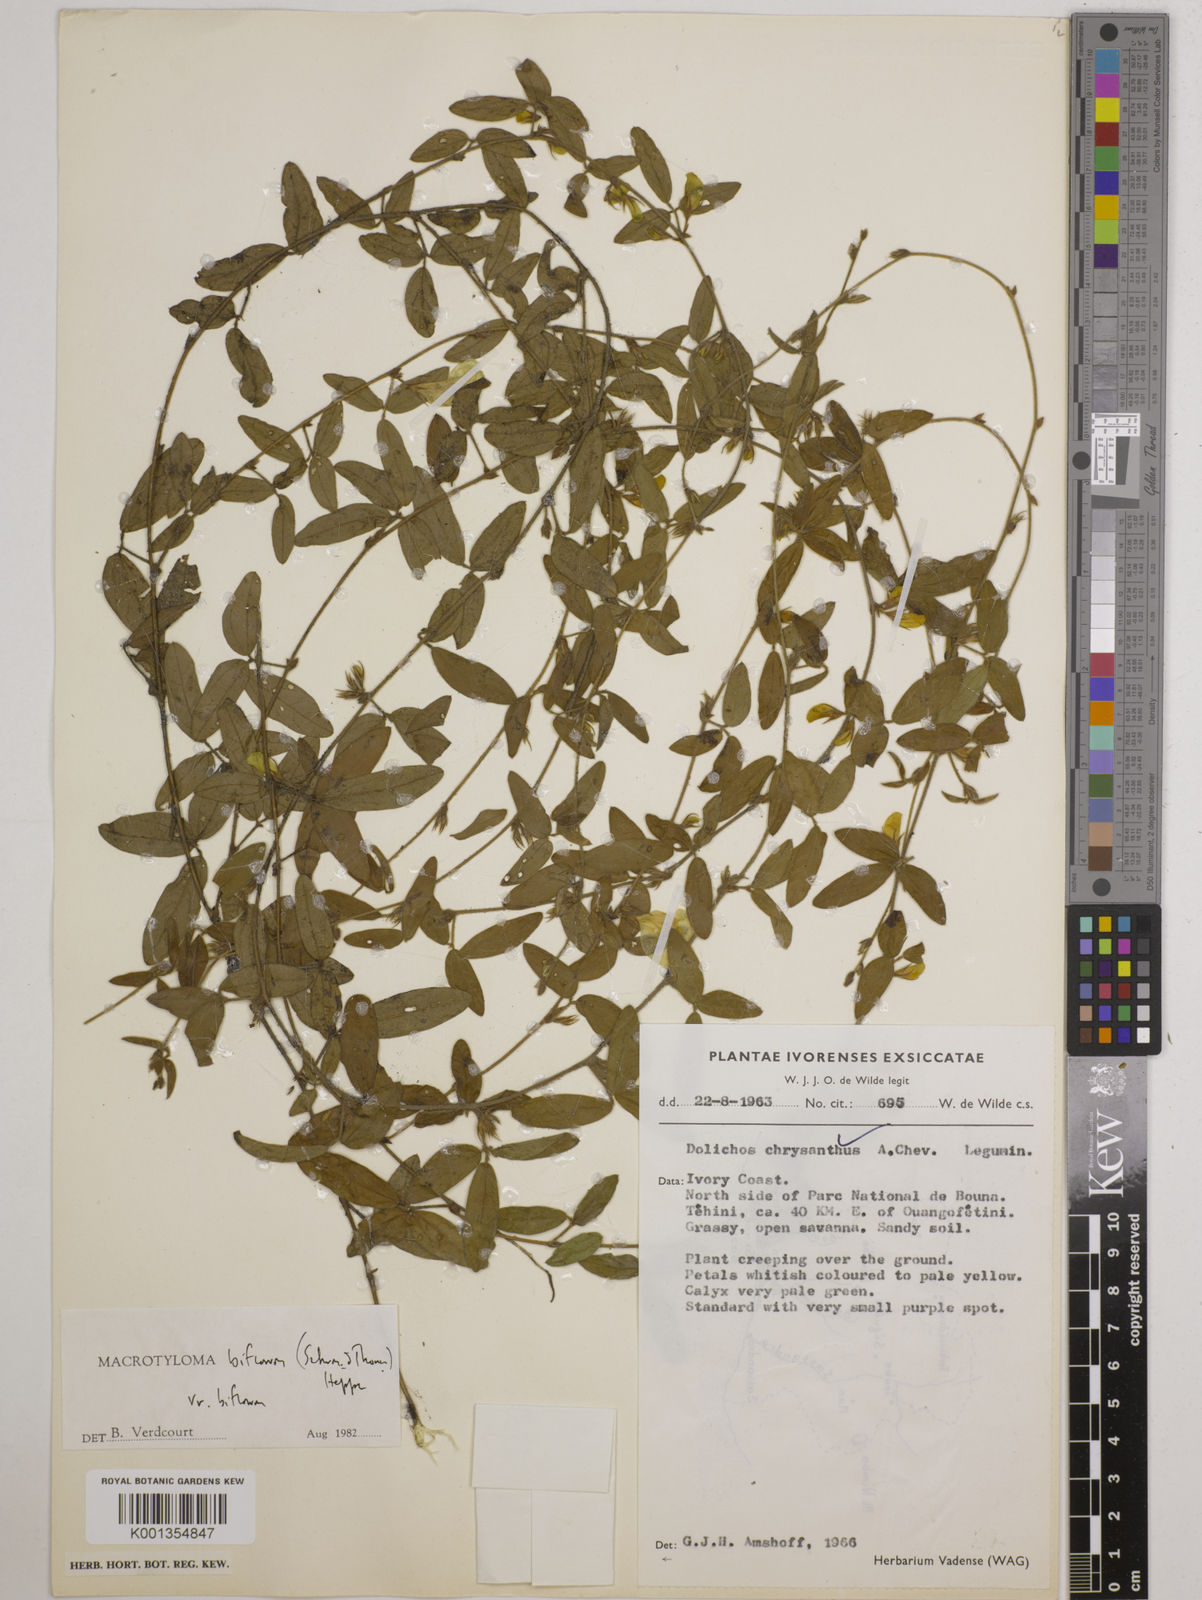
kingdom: Plantae
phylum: Tracheophyta
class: Magnoliopsida
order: Fabales
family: Fabaceae
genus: Macrotyloma
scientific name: Macrotyloma biflorum
